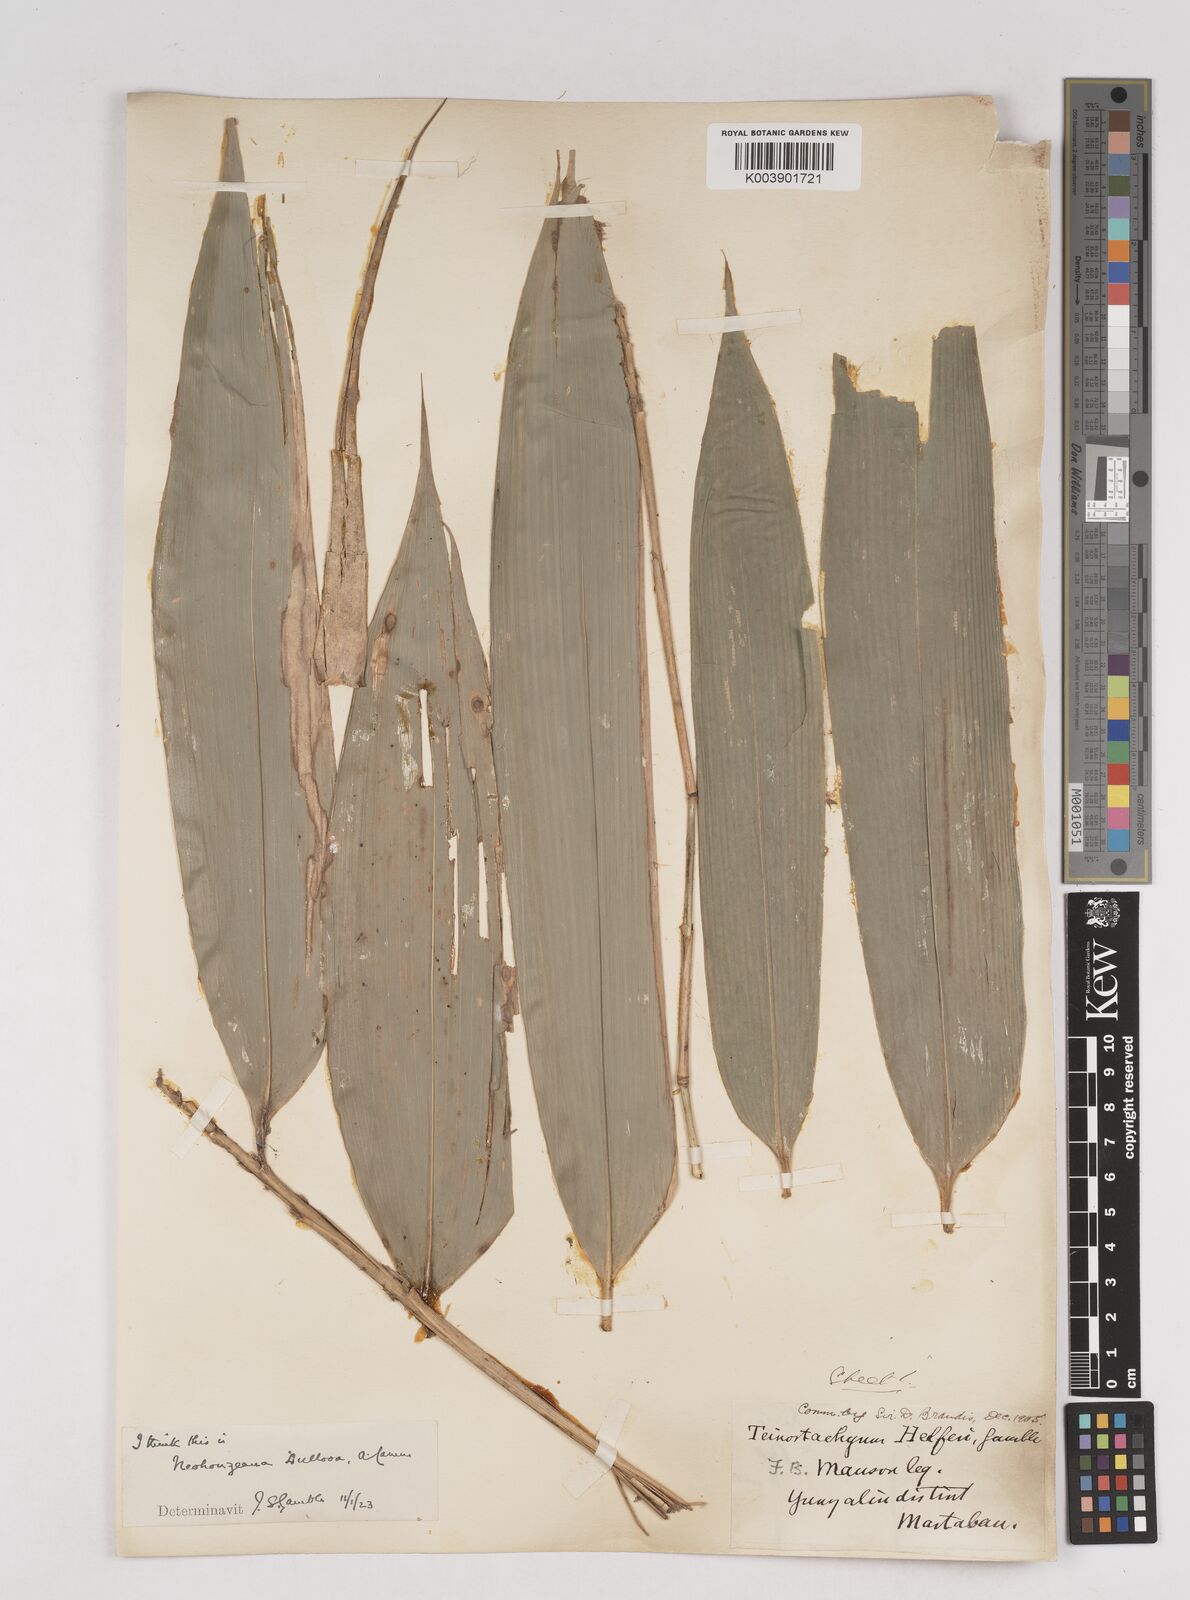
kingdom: Plantae
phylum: Tracheophyta
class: Liliopsida
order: Poales
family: Poaceae
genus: Schizostachyum
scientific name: Schizostachyum dullooa
